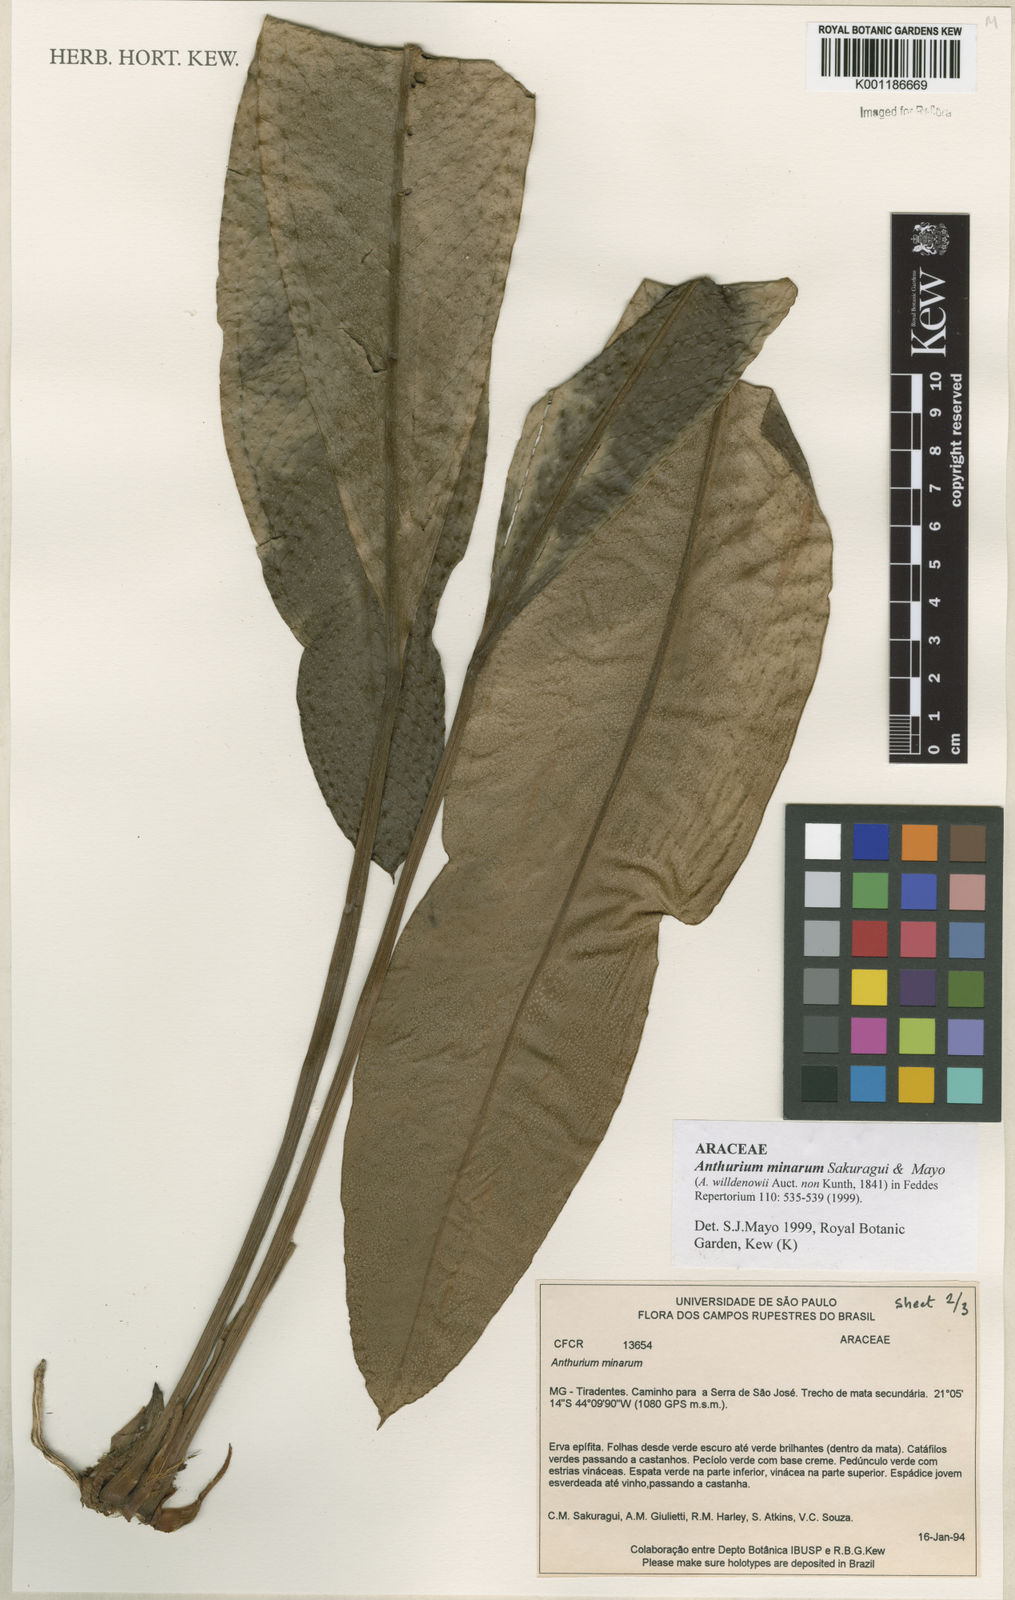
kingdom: Plantae
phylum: Tracheophyta
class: Liliopsida
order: Alismatales
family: Araceae
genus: Anthurium
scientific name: Anthurium minarum
